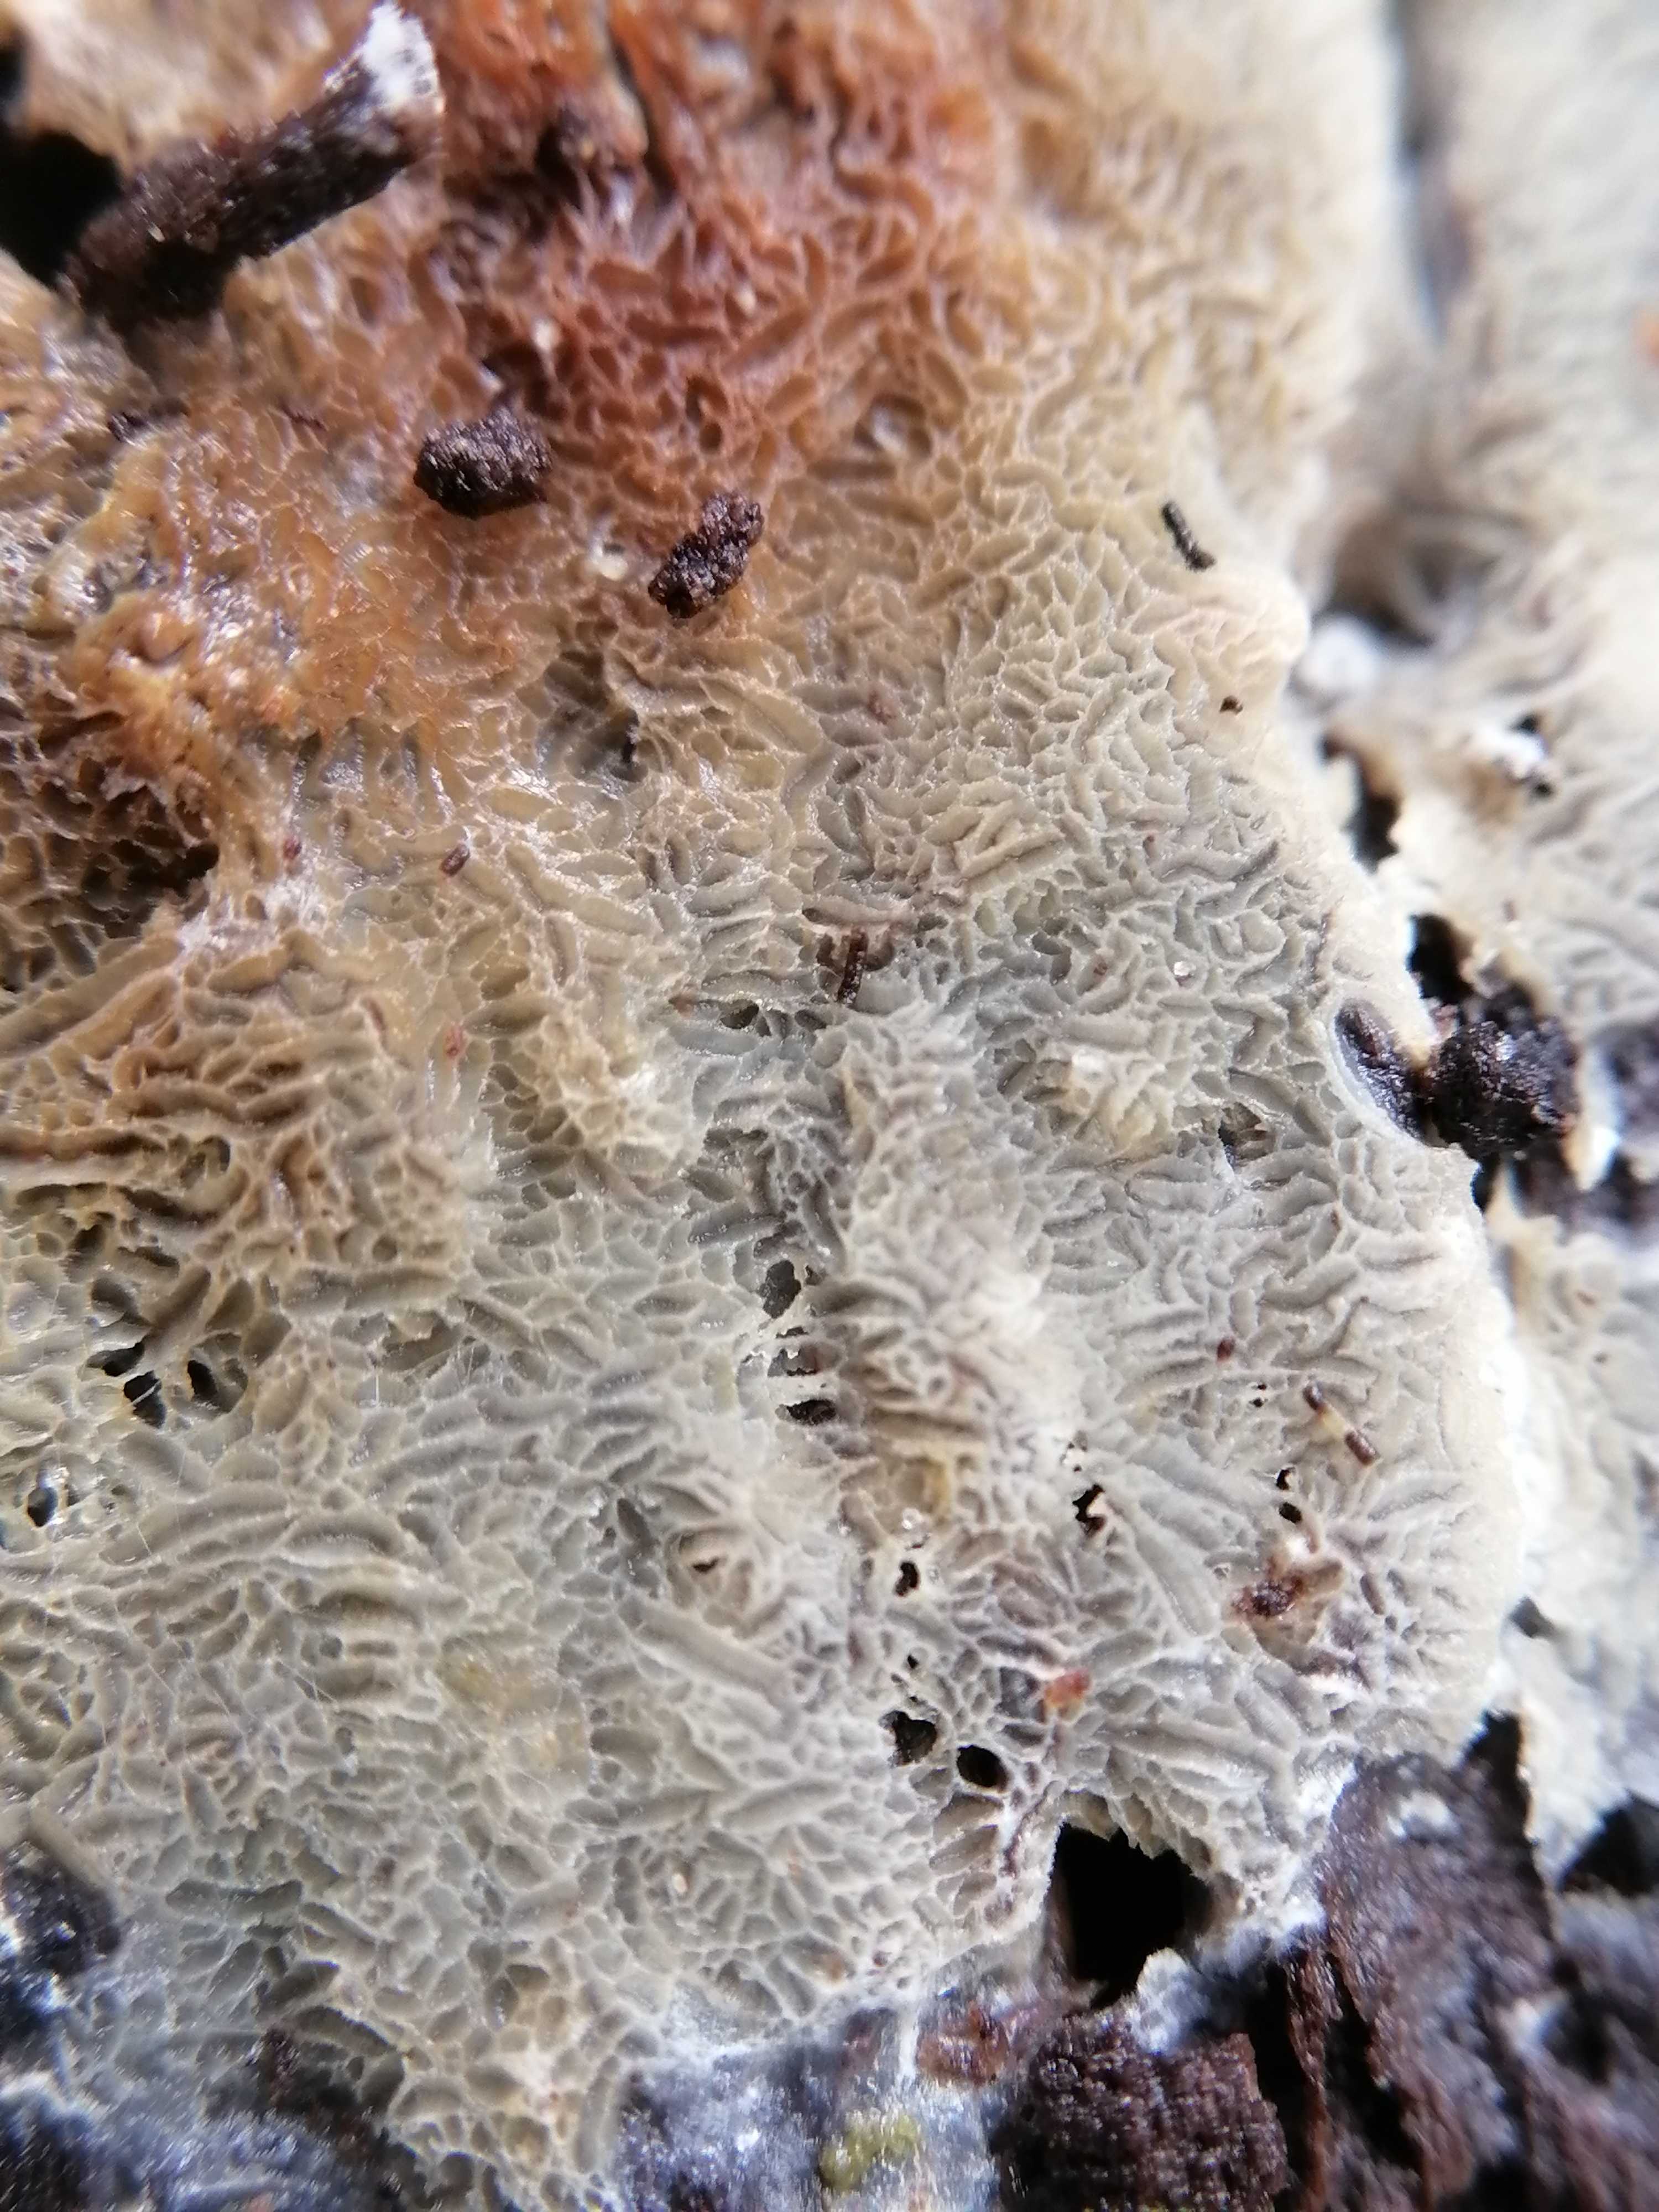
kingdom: Fungi
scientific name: Fungi
